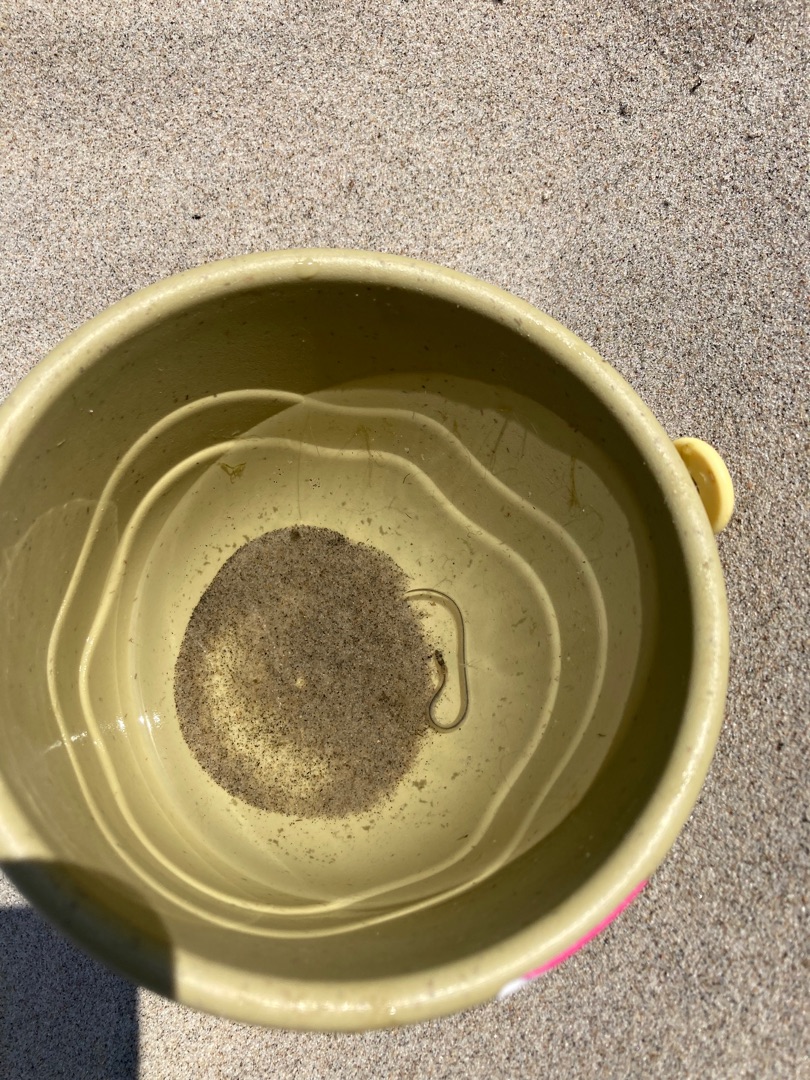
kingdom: Animalia
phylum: Chordata
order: Anguilliformes
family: Anguillidae
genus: Anguilla
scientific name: Anguilla anguilla
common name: Europæisk ål
